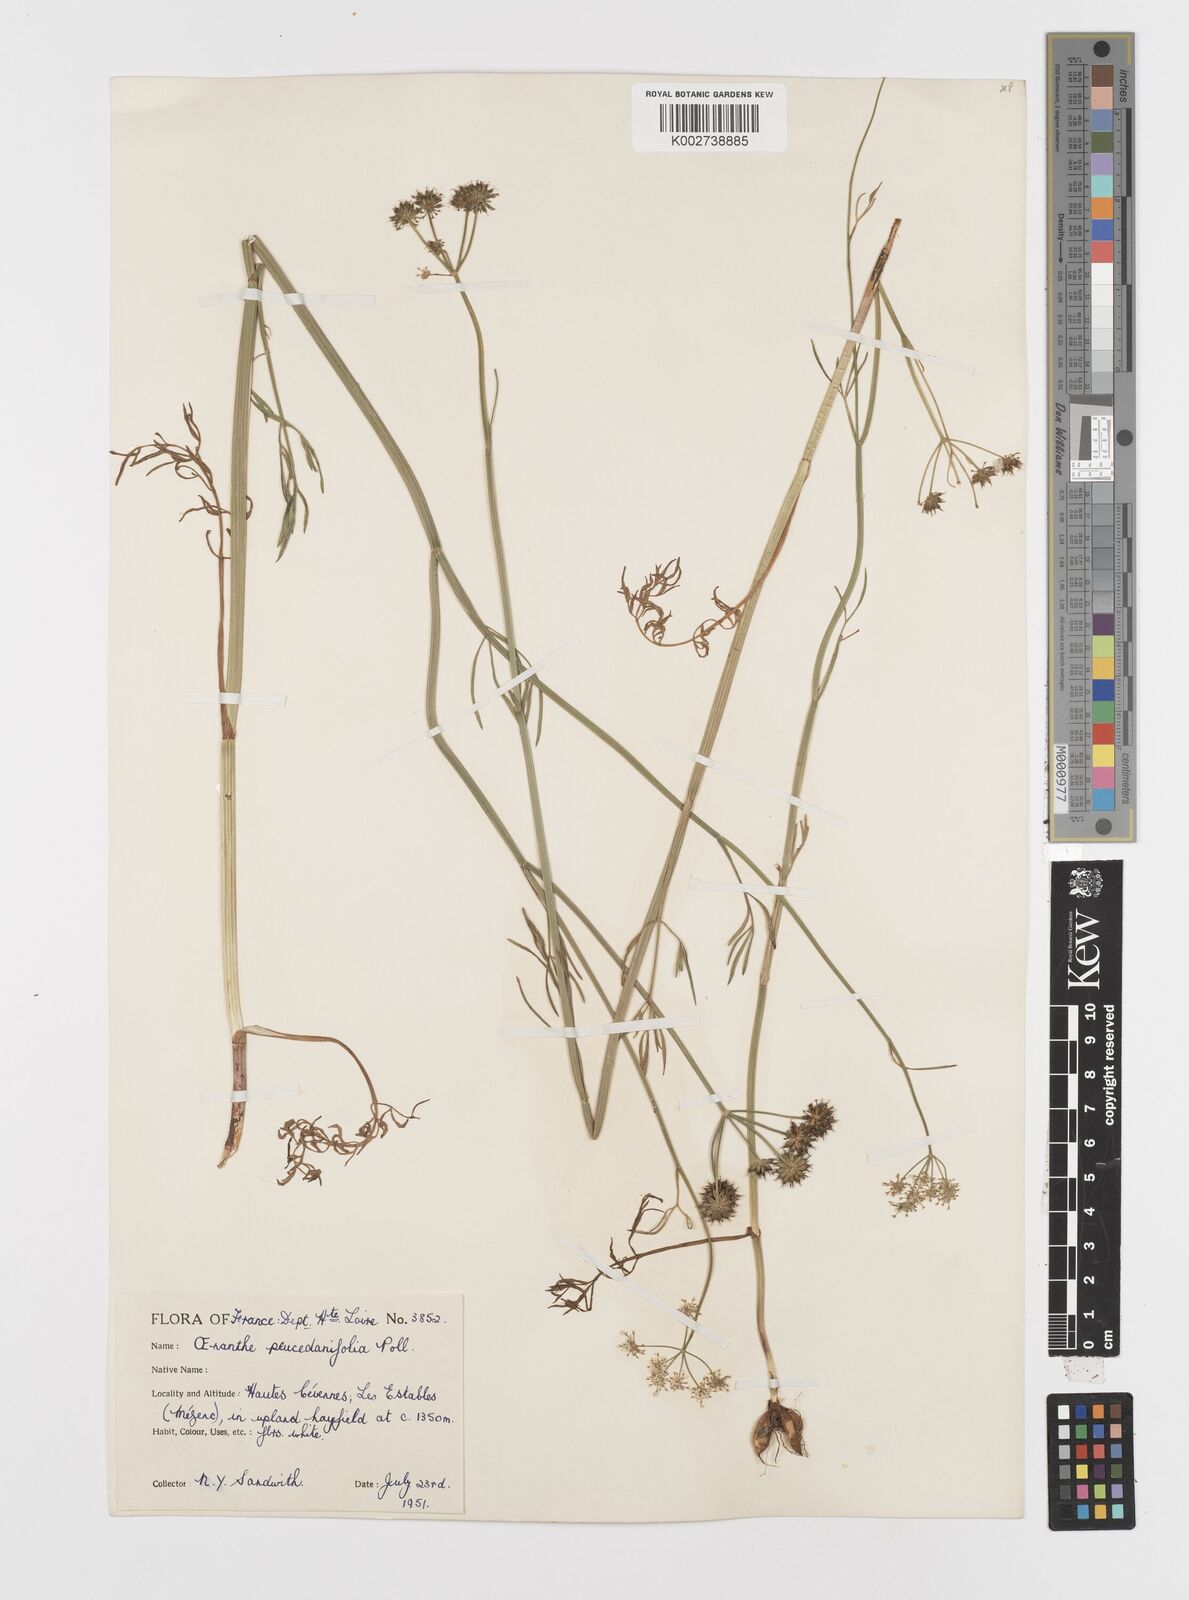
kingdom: Plantae
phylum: Tracheophyta
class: Magnoliopsida
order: Apiales
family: Apiaceae
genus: Oenanthe
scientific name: Oenanthe peucedanifolia
